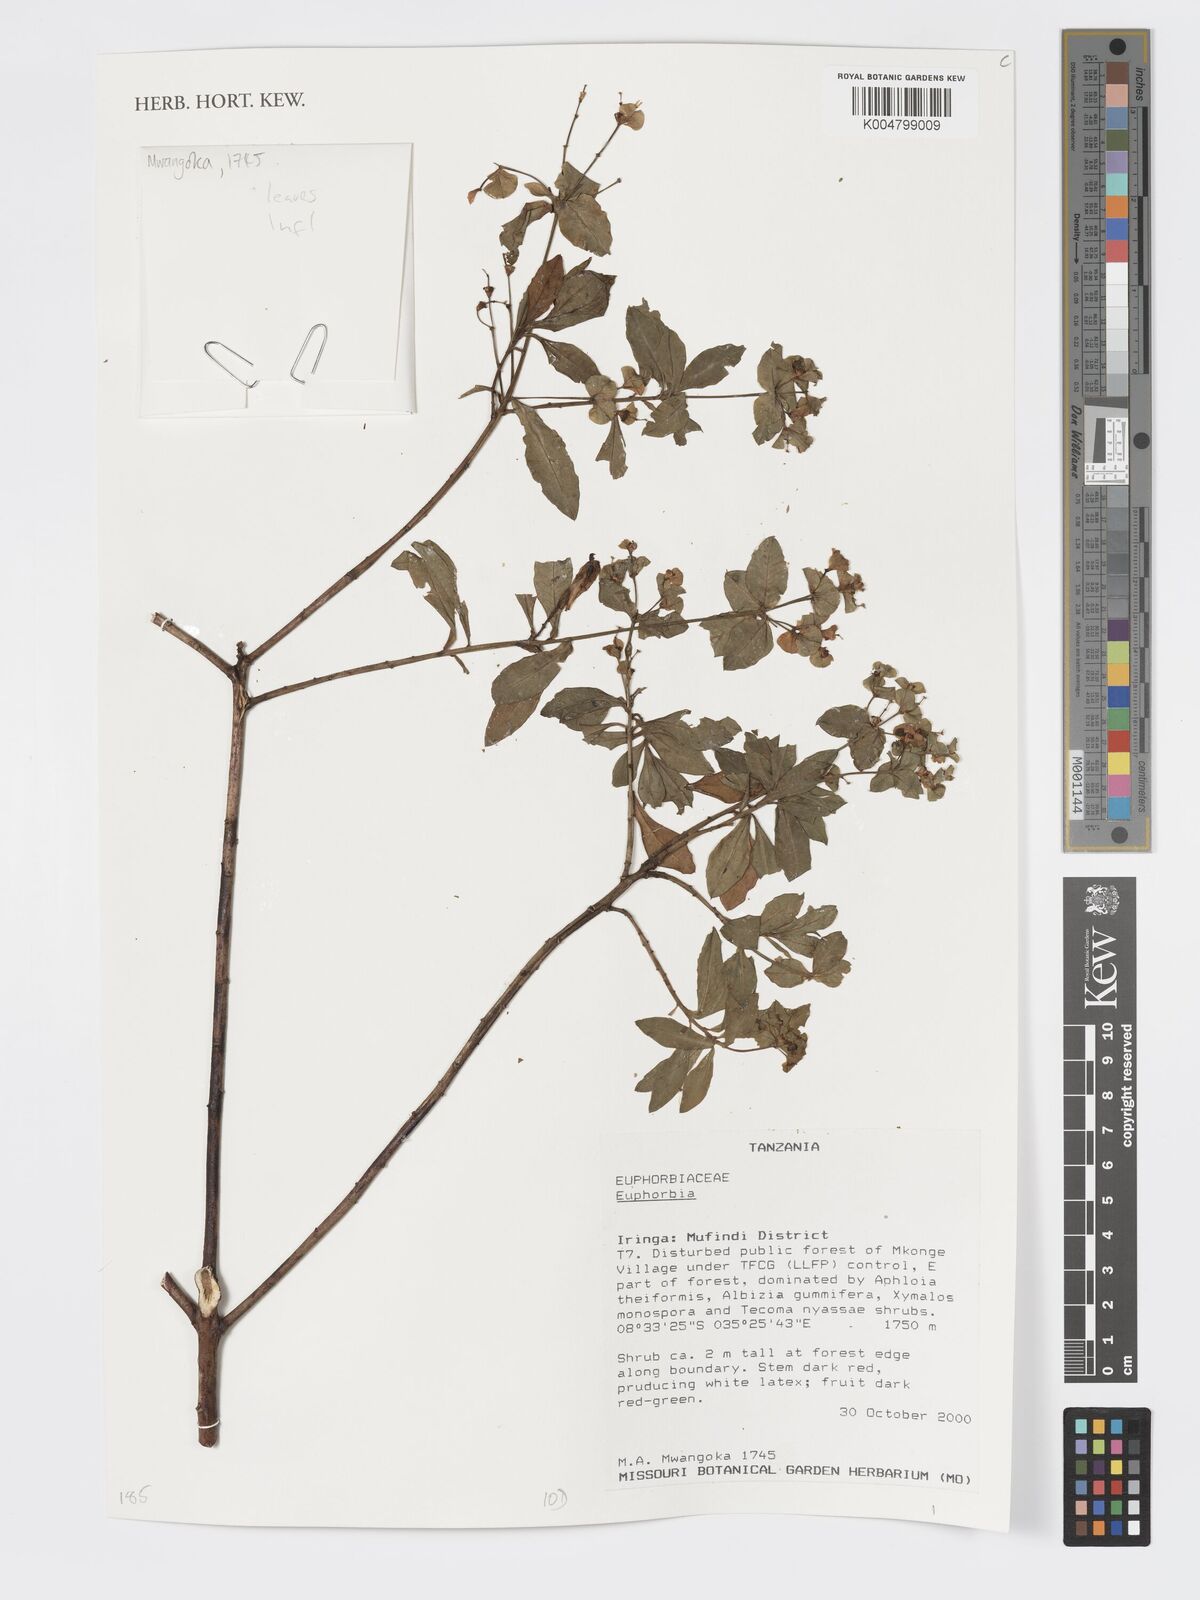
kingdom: Plantae
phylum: Tracheophyta
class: Magnoliopsida
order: Malpighiales
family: Euphorbiaceae
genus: Euphorbia
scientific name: Euphorbia
